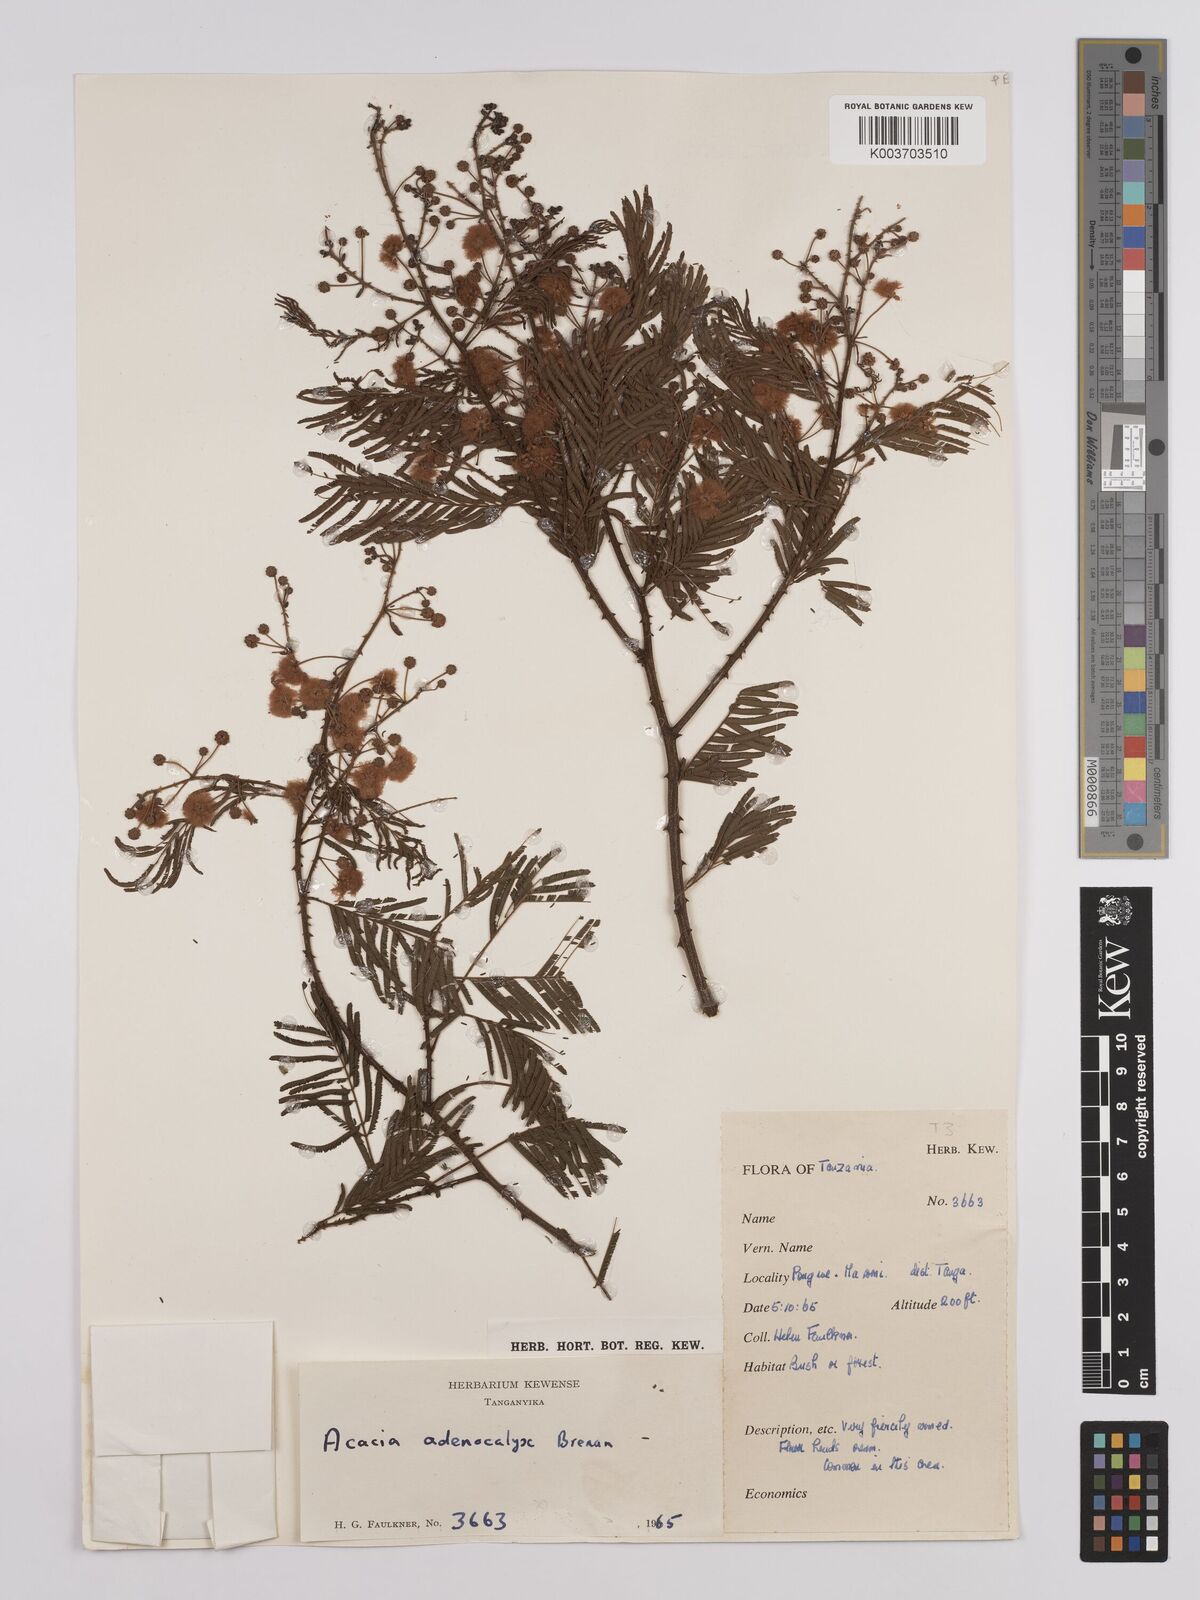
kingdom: Plantae
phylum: Tracheophyta
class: Magnoliopsida
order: Fabales
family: Fabaceae
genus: Senegalia
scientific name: Senegalia adenocalyx
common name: Pfurura
